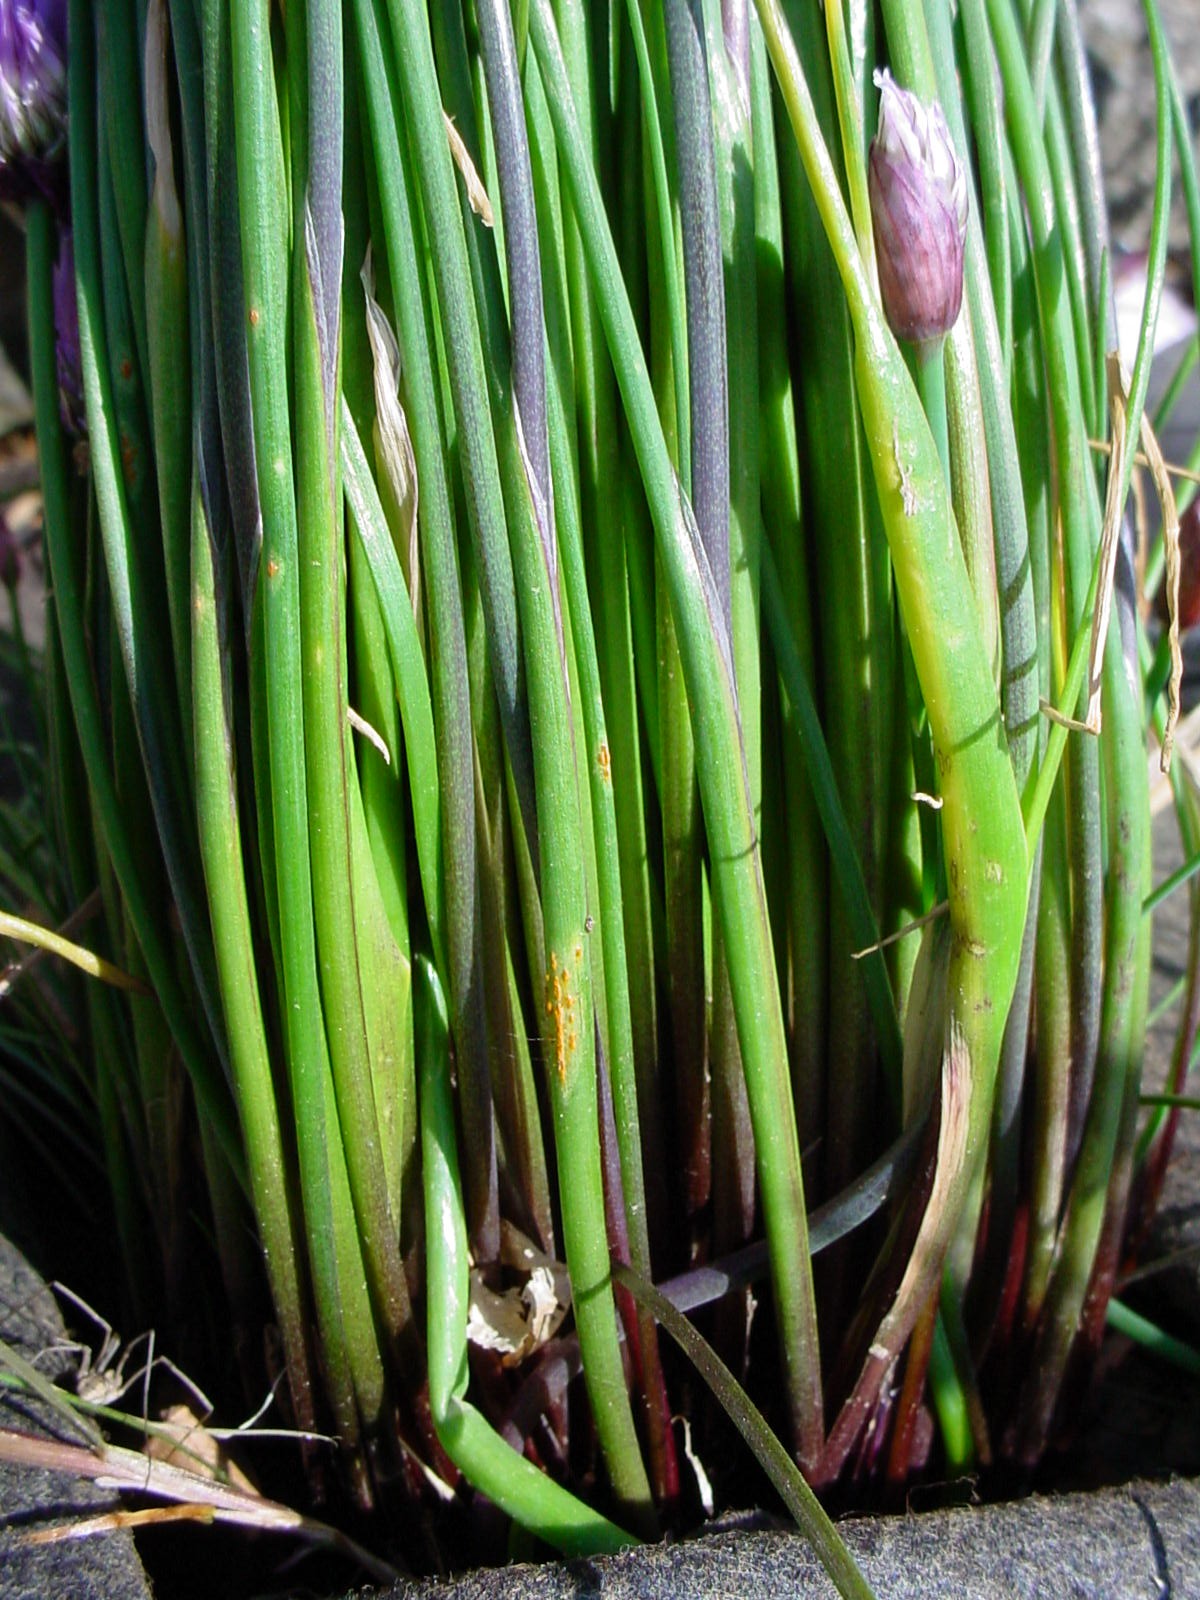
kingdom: Plantae
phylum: Tracheophyta
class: Liliopsida
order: Asparagales
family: Amaryllidaceae
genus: Allium
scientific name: Allium schoenoprasum
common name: Chives
